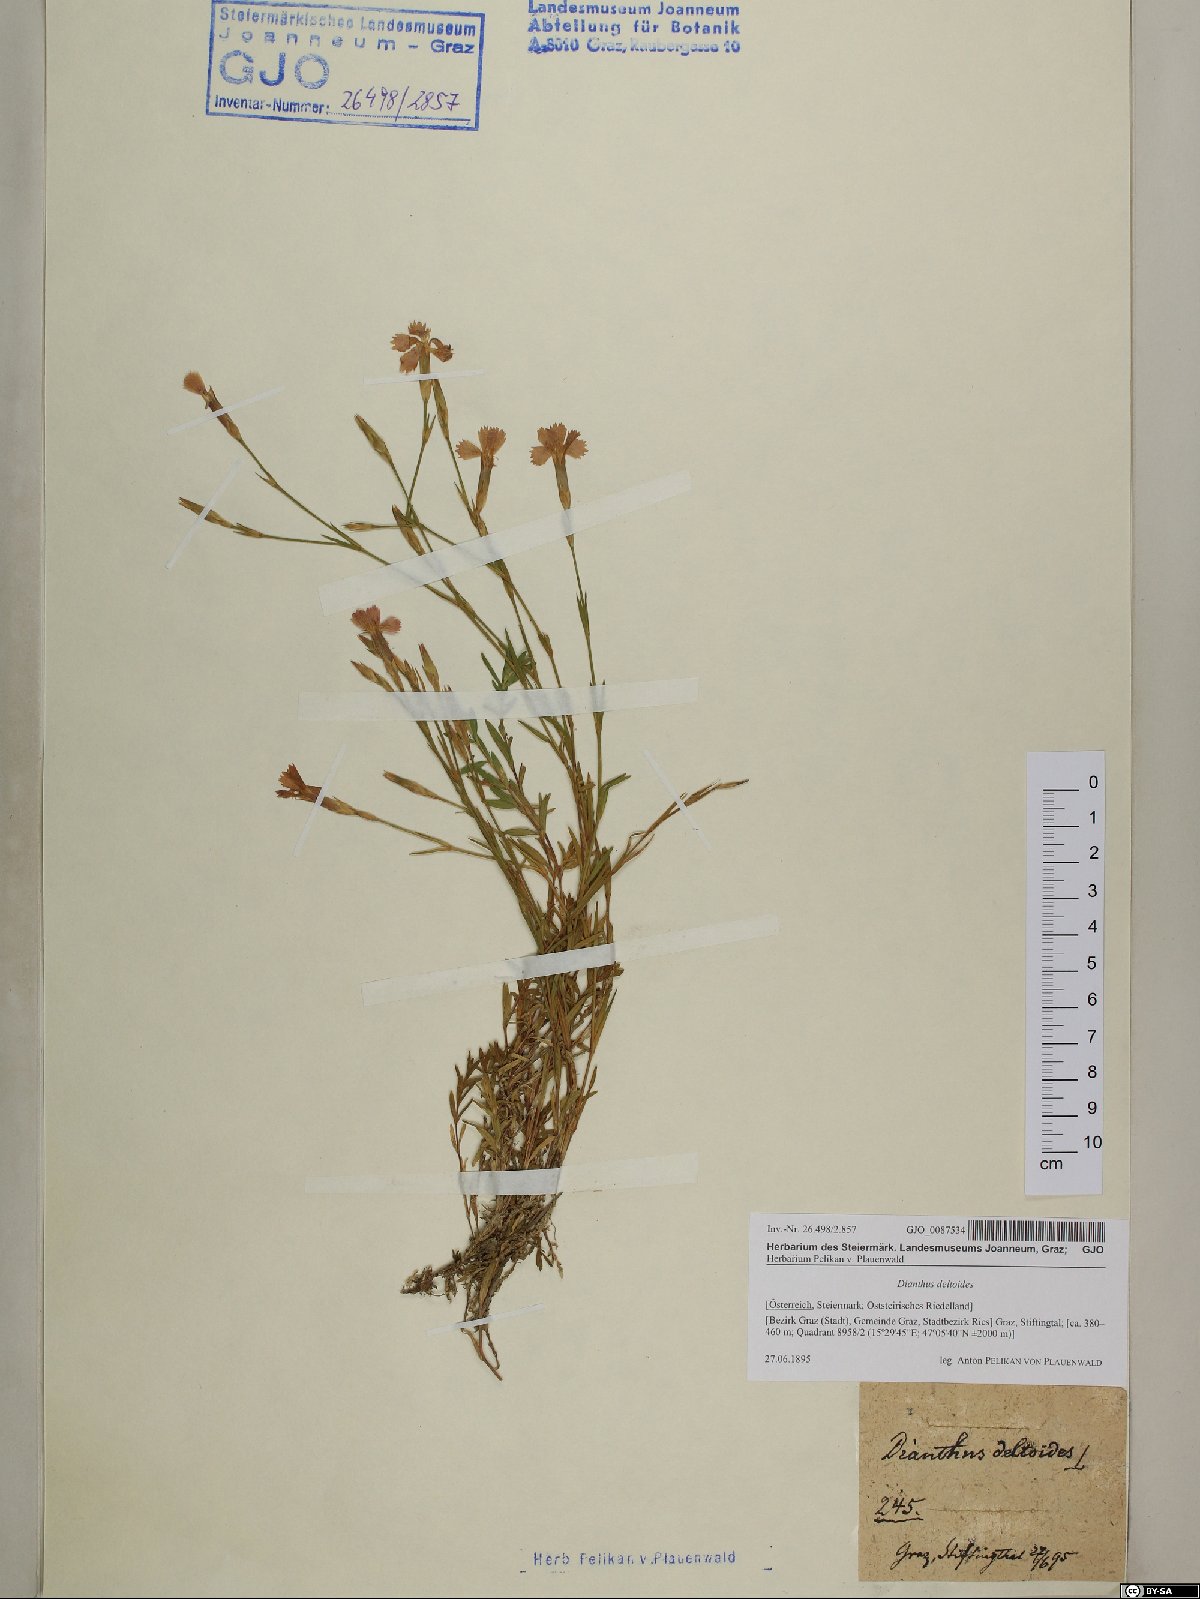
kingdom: Plantae
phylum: Tracheophyta
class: Magnoliopsida
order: Caryophyllales
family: Caryophyllaceae
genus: Dianthus
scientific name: Dianthus deltoides
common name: Maiden pink
